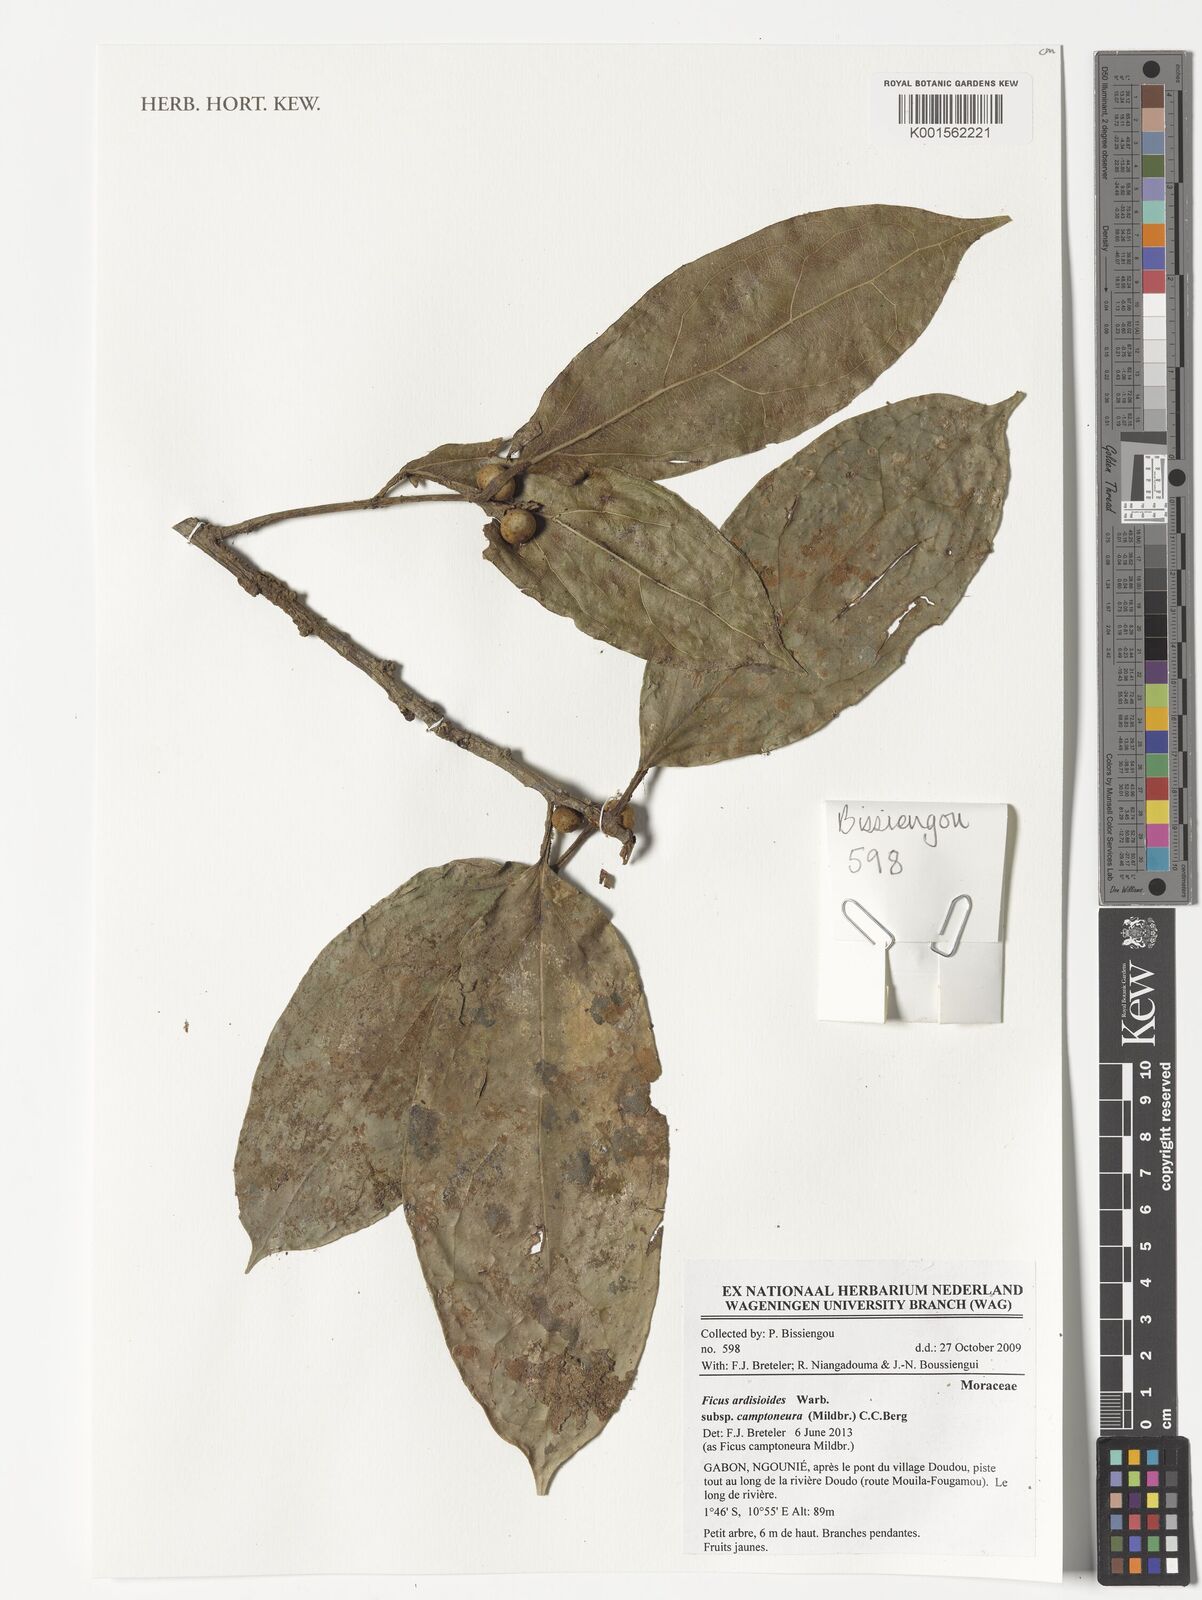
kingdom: Plantae
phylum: Tracheophyta
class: Magnoliopsida
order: Rosales
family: Moraceae
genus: Ficus
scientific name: Ficus ardisioides
